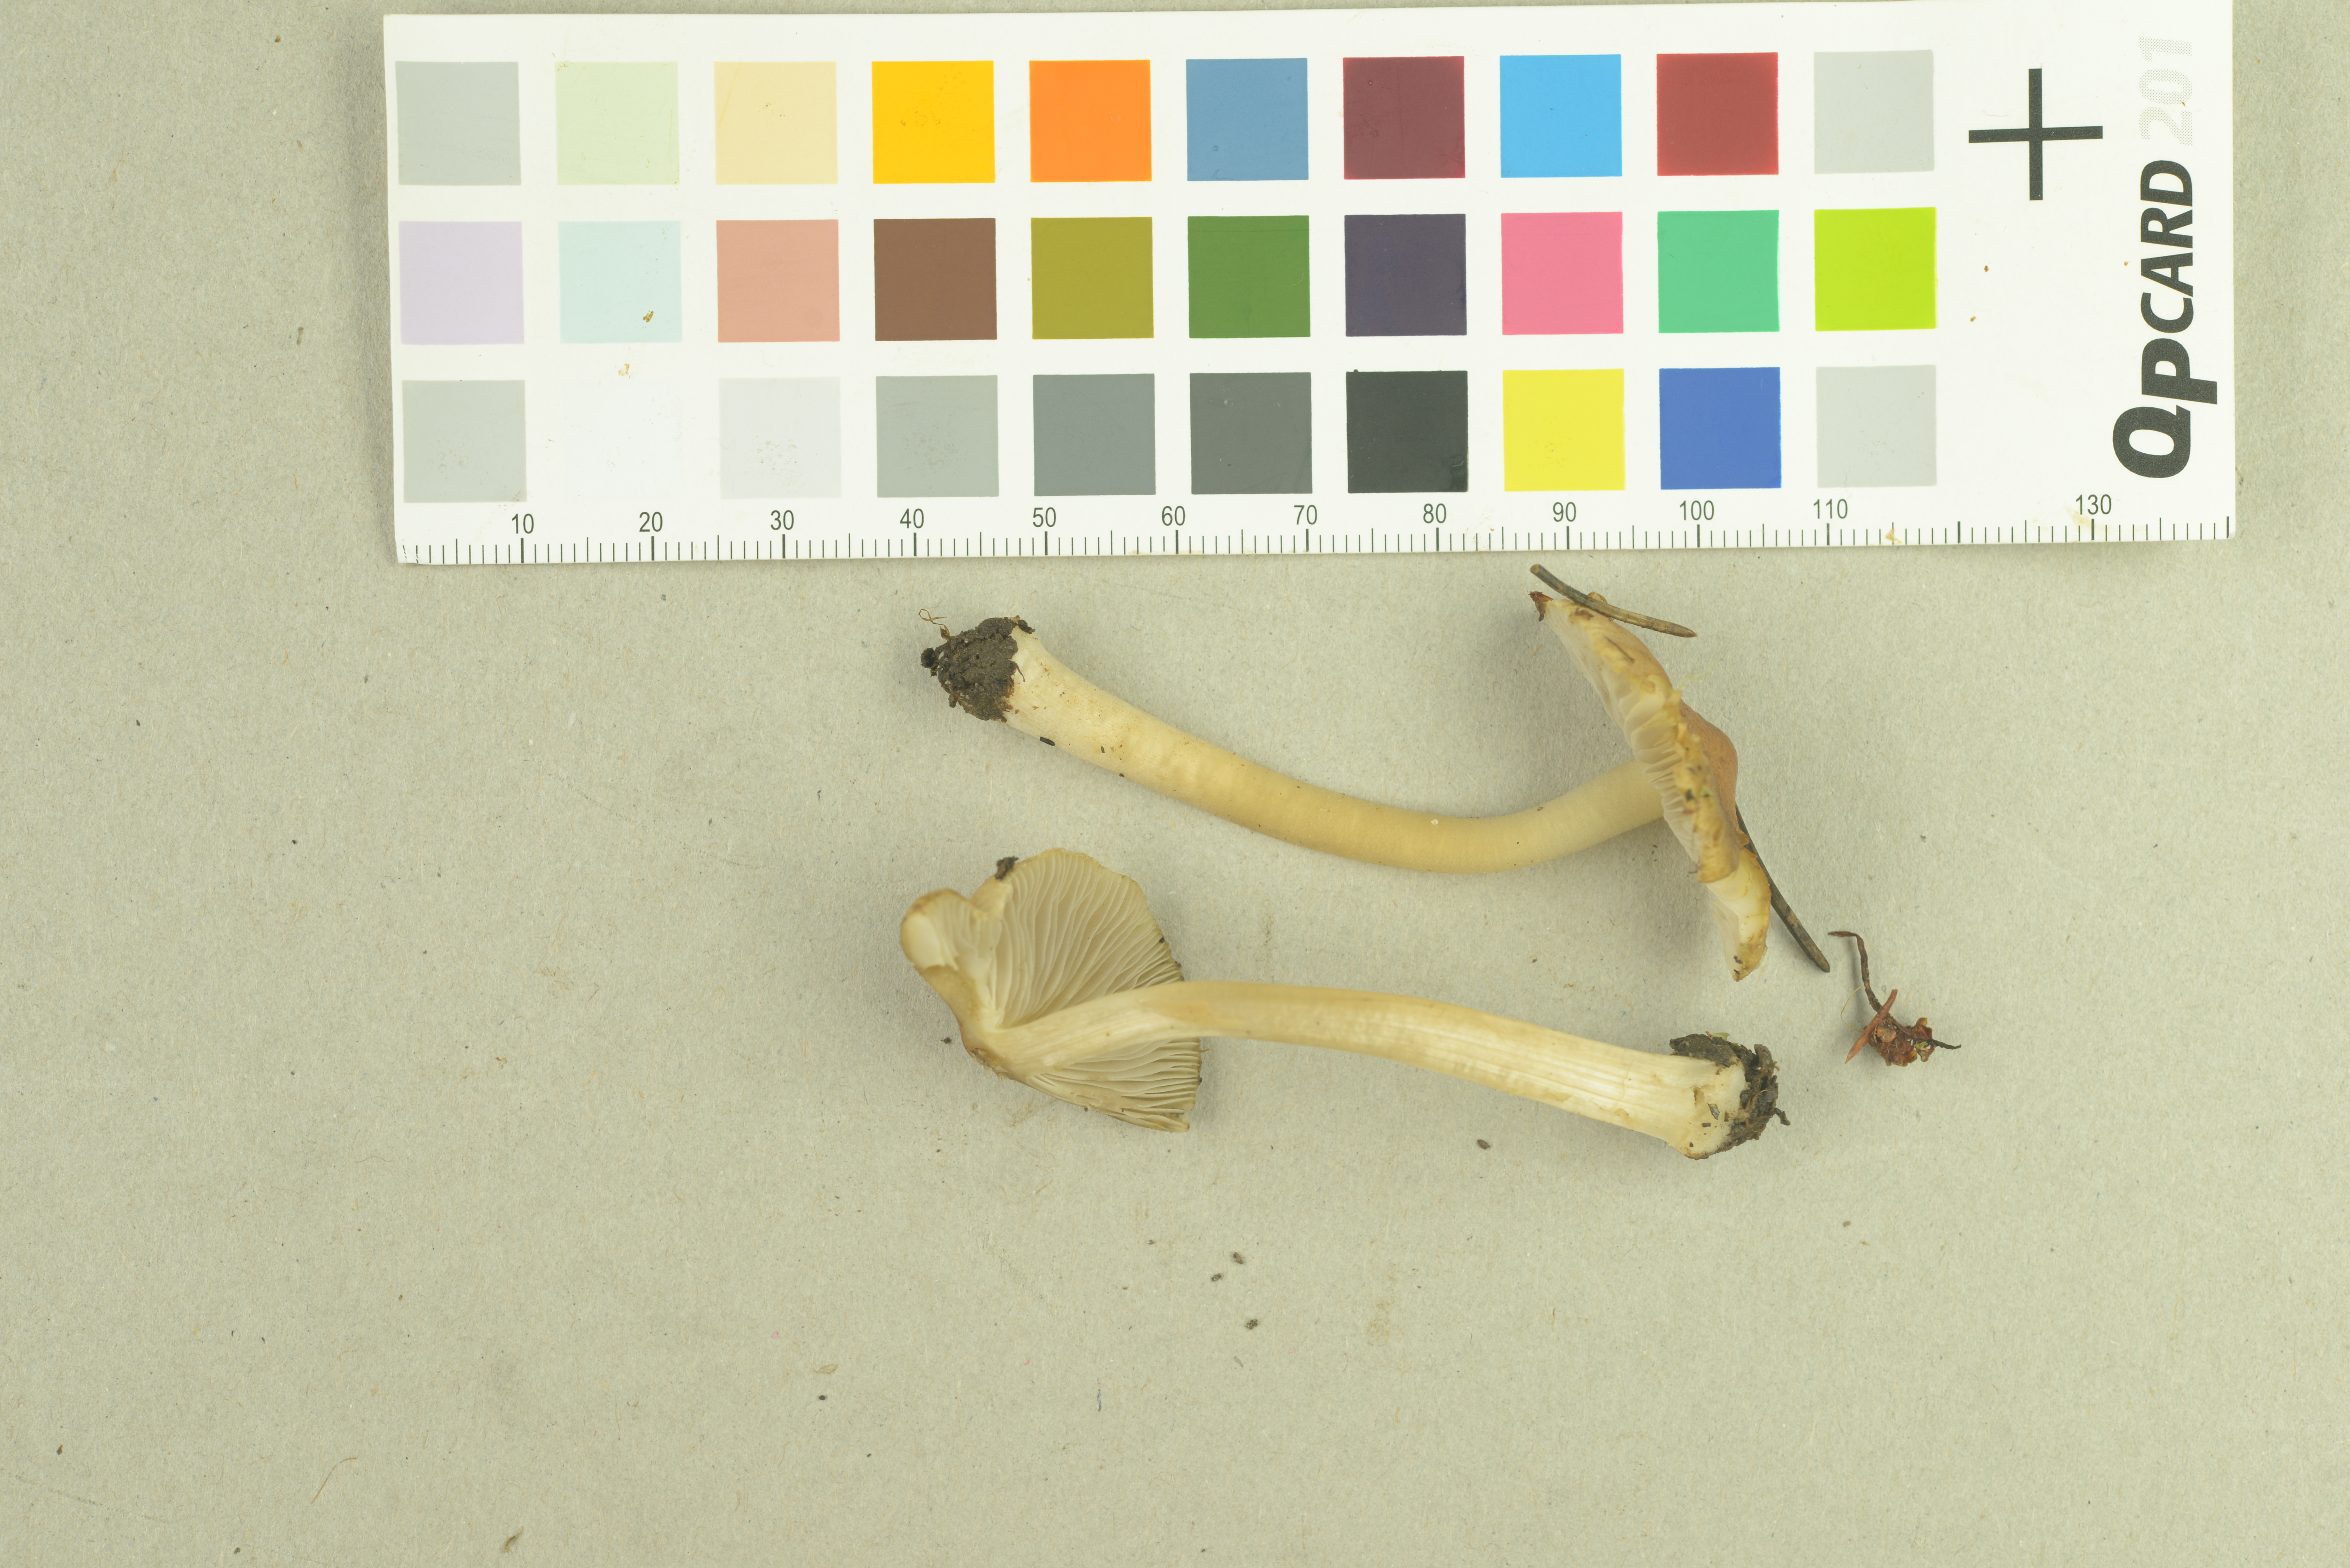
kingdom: Fungi
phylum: Basidiomycota
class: Agaricomycetes
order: Agaricales
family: Inocybaceae
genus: Inocybe
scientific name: Inocybe mixtilis
